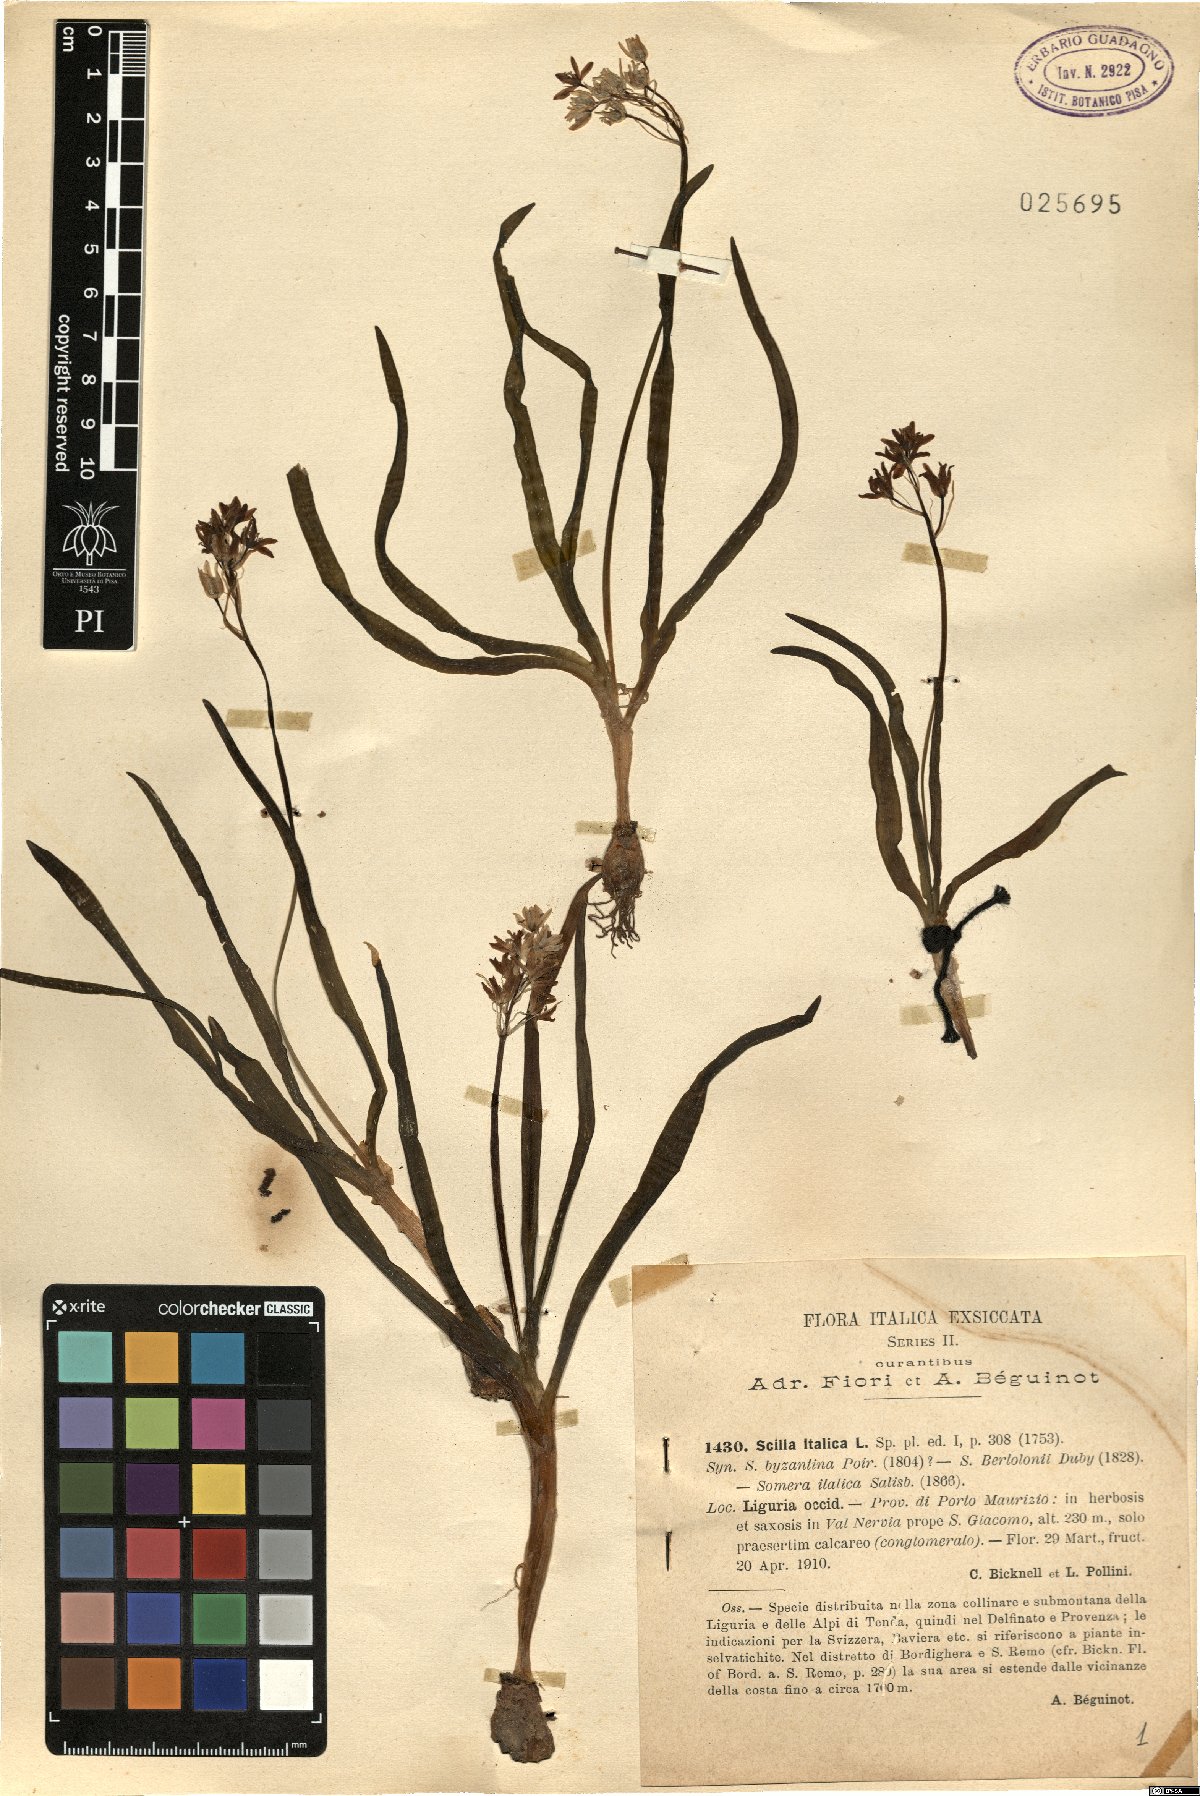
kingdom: Plantae
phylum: Tracheophyta
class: Liliopsida
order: Asparagales
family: Asparagaceae
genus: Hyacinthoides
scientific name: Hyacinthoides italica
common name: Italian bluebell
